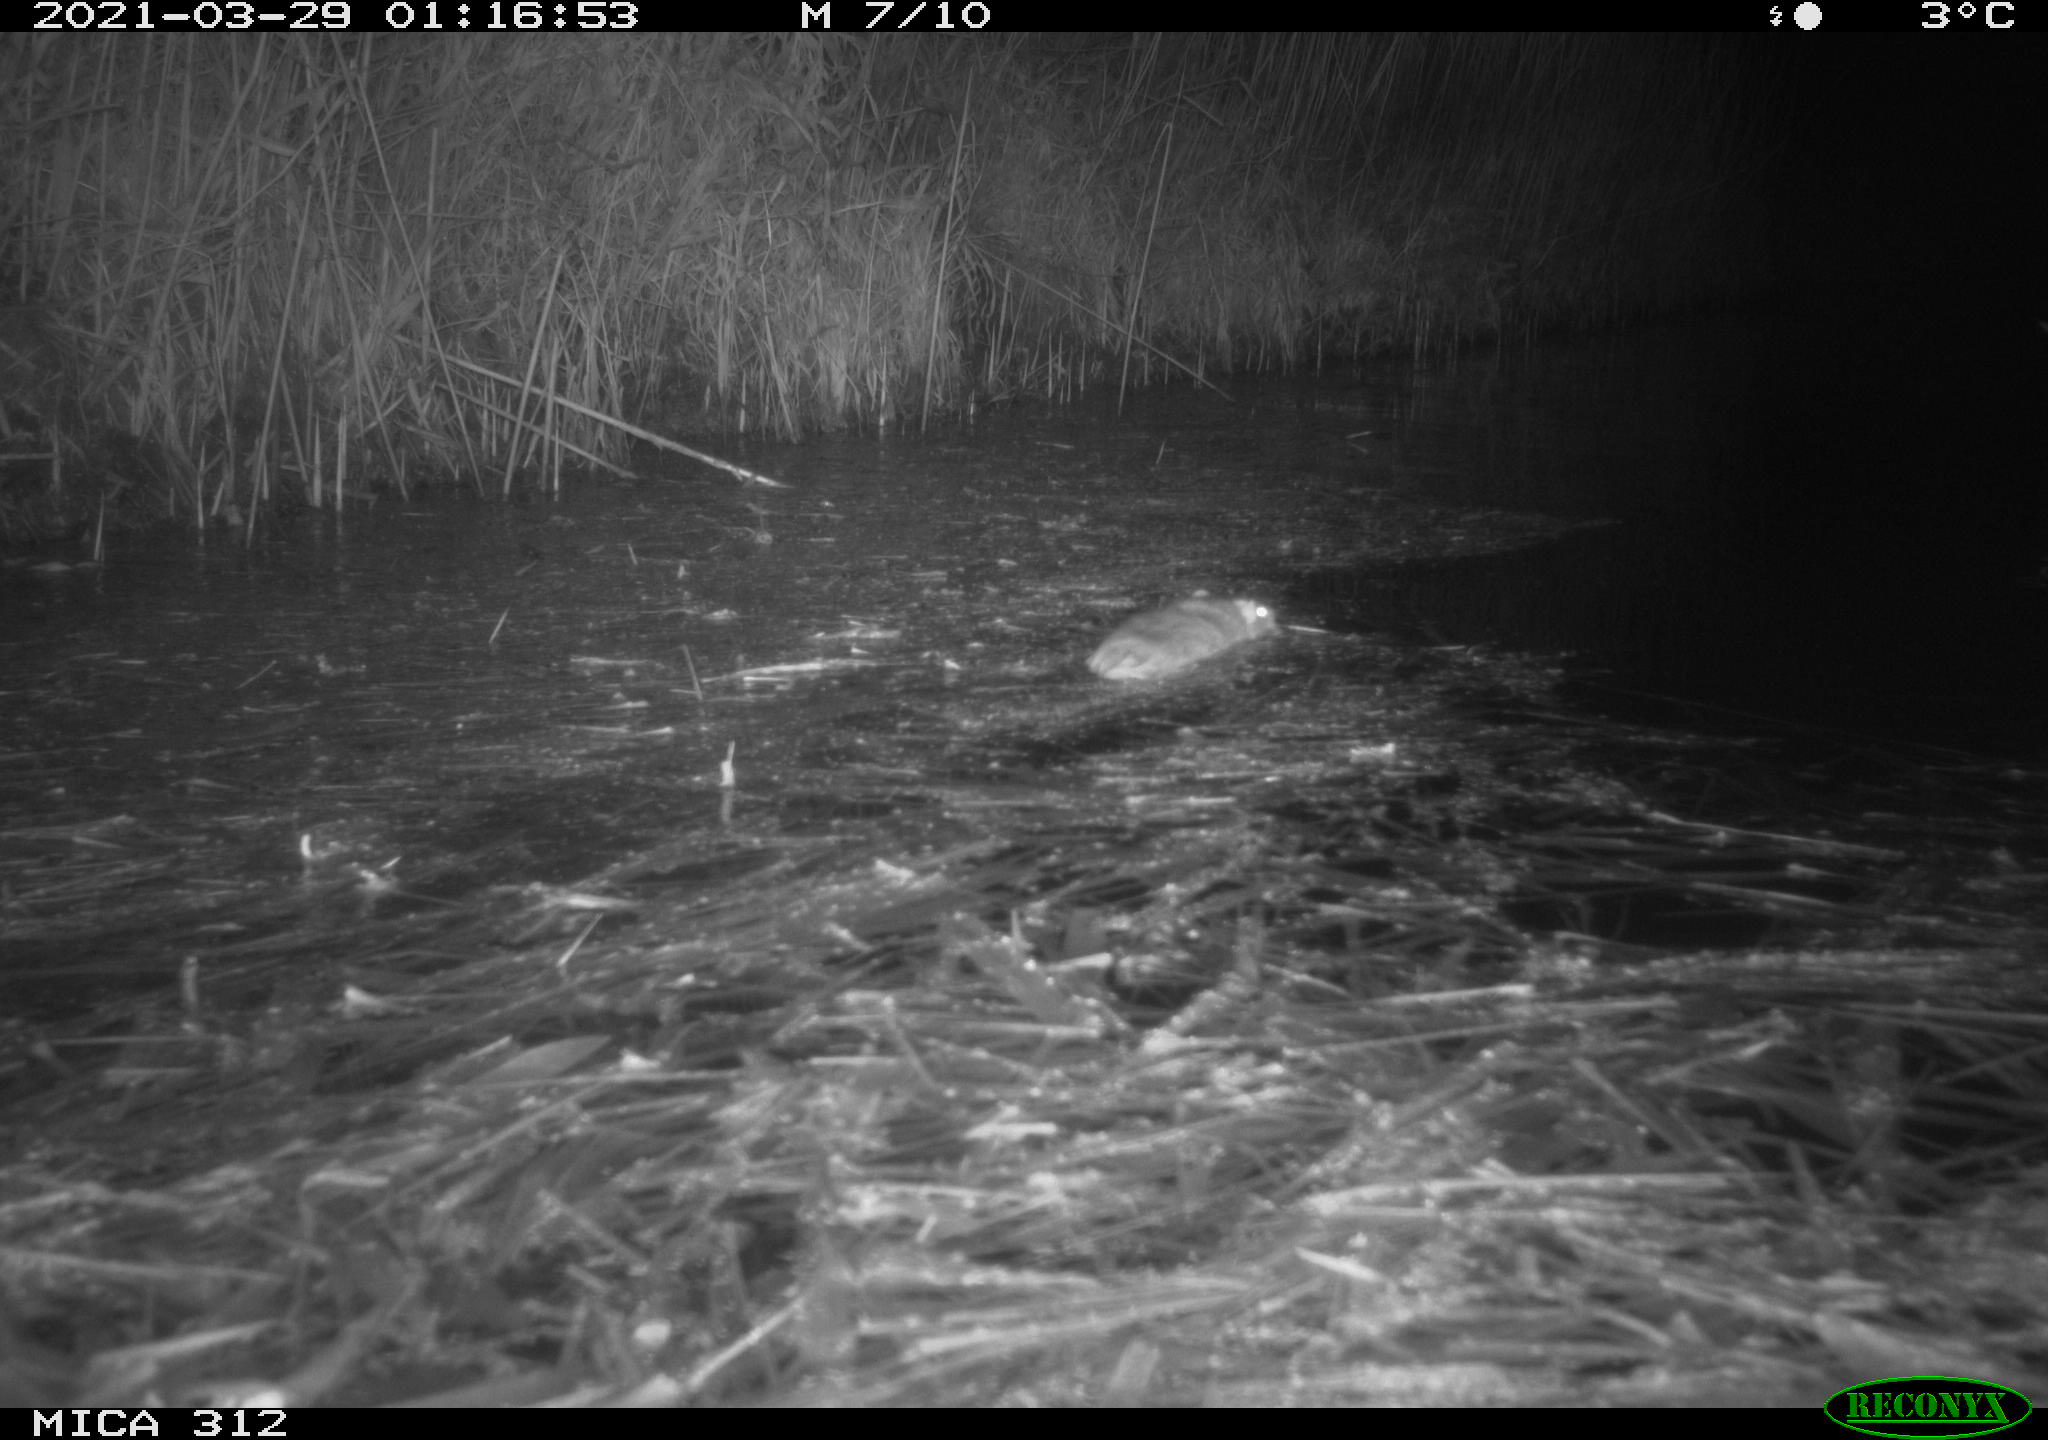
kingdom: Animalia
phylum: Chordata
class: Mammalia
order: Rodentia
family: Muridae
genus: Rattus
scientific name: Rattus norvegicus
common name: Brown rat
